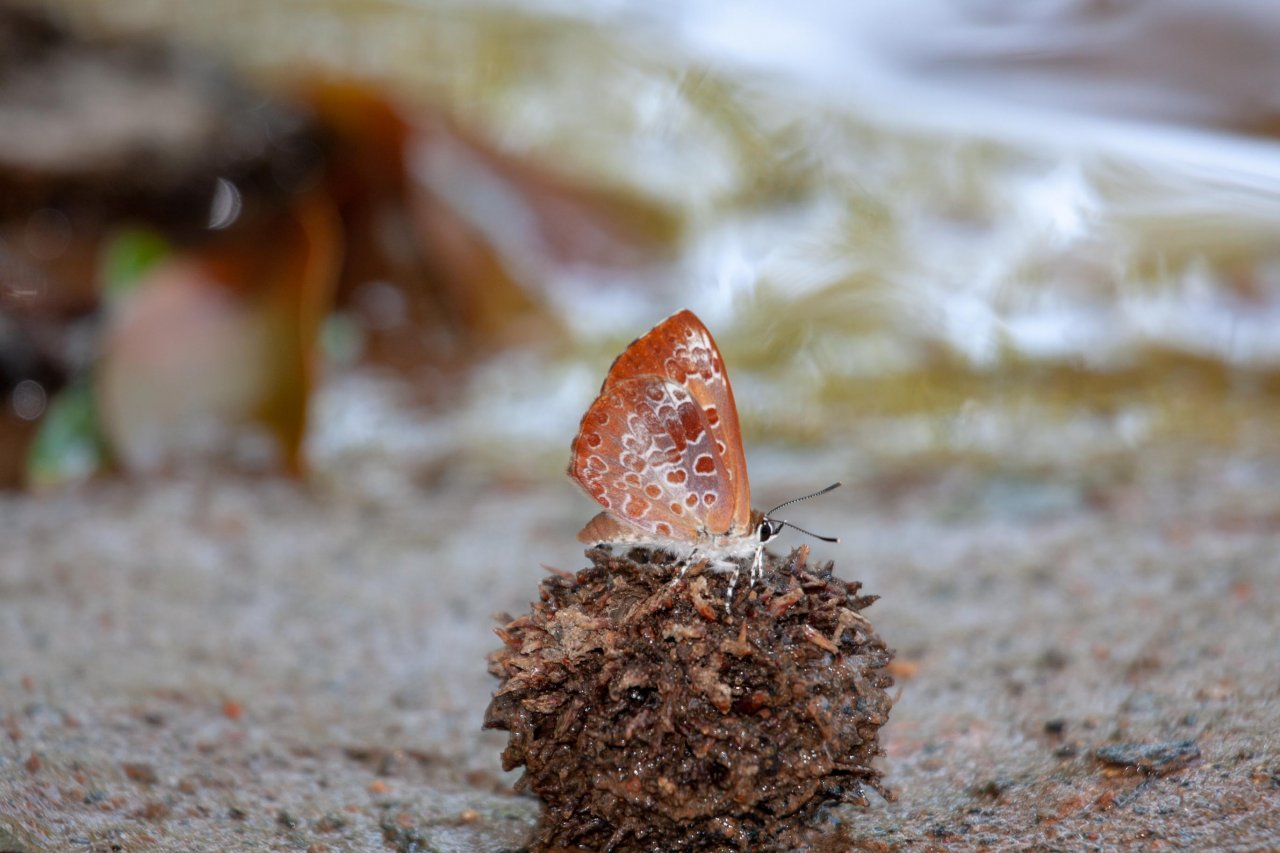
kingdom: Animalia
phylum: Arthropoda
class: Insecta
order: Lepidoptera
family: Lycaenidae
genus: Feniseca
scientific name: Feniseca tarquinius
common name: Harvester
